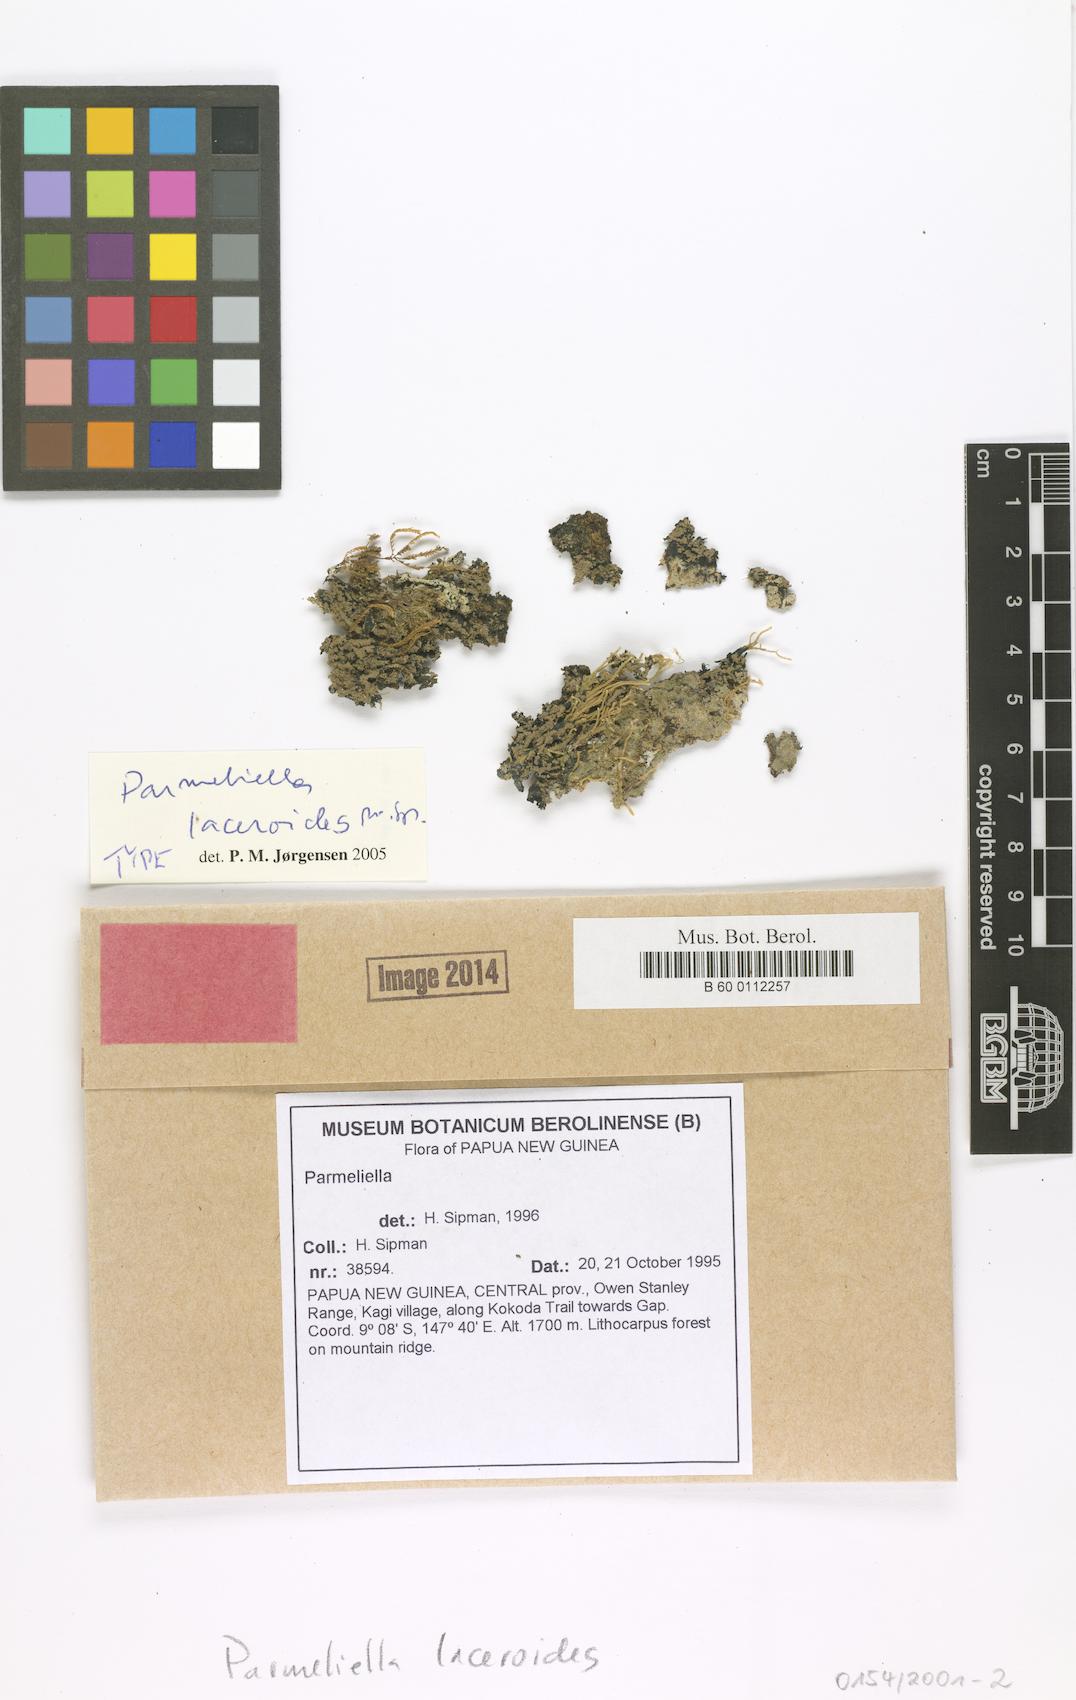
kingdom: Fungi
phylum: Ascomycota
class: Lecanoromycetes
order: Peltigerales
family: Pannariaceae
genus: Parmeliella
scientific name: Parmeliella laceroides
